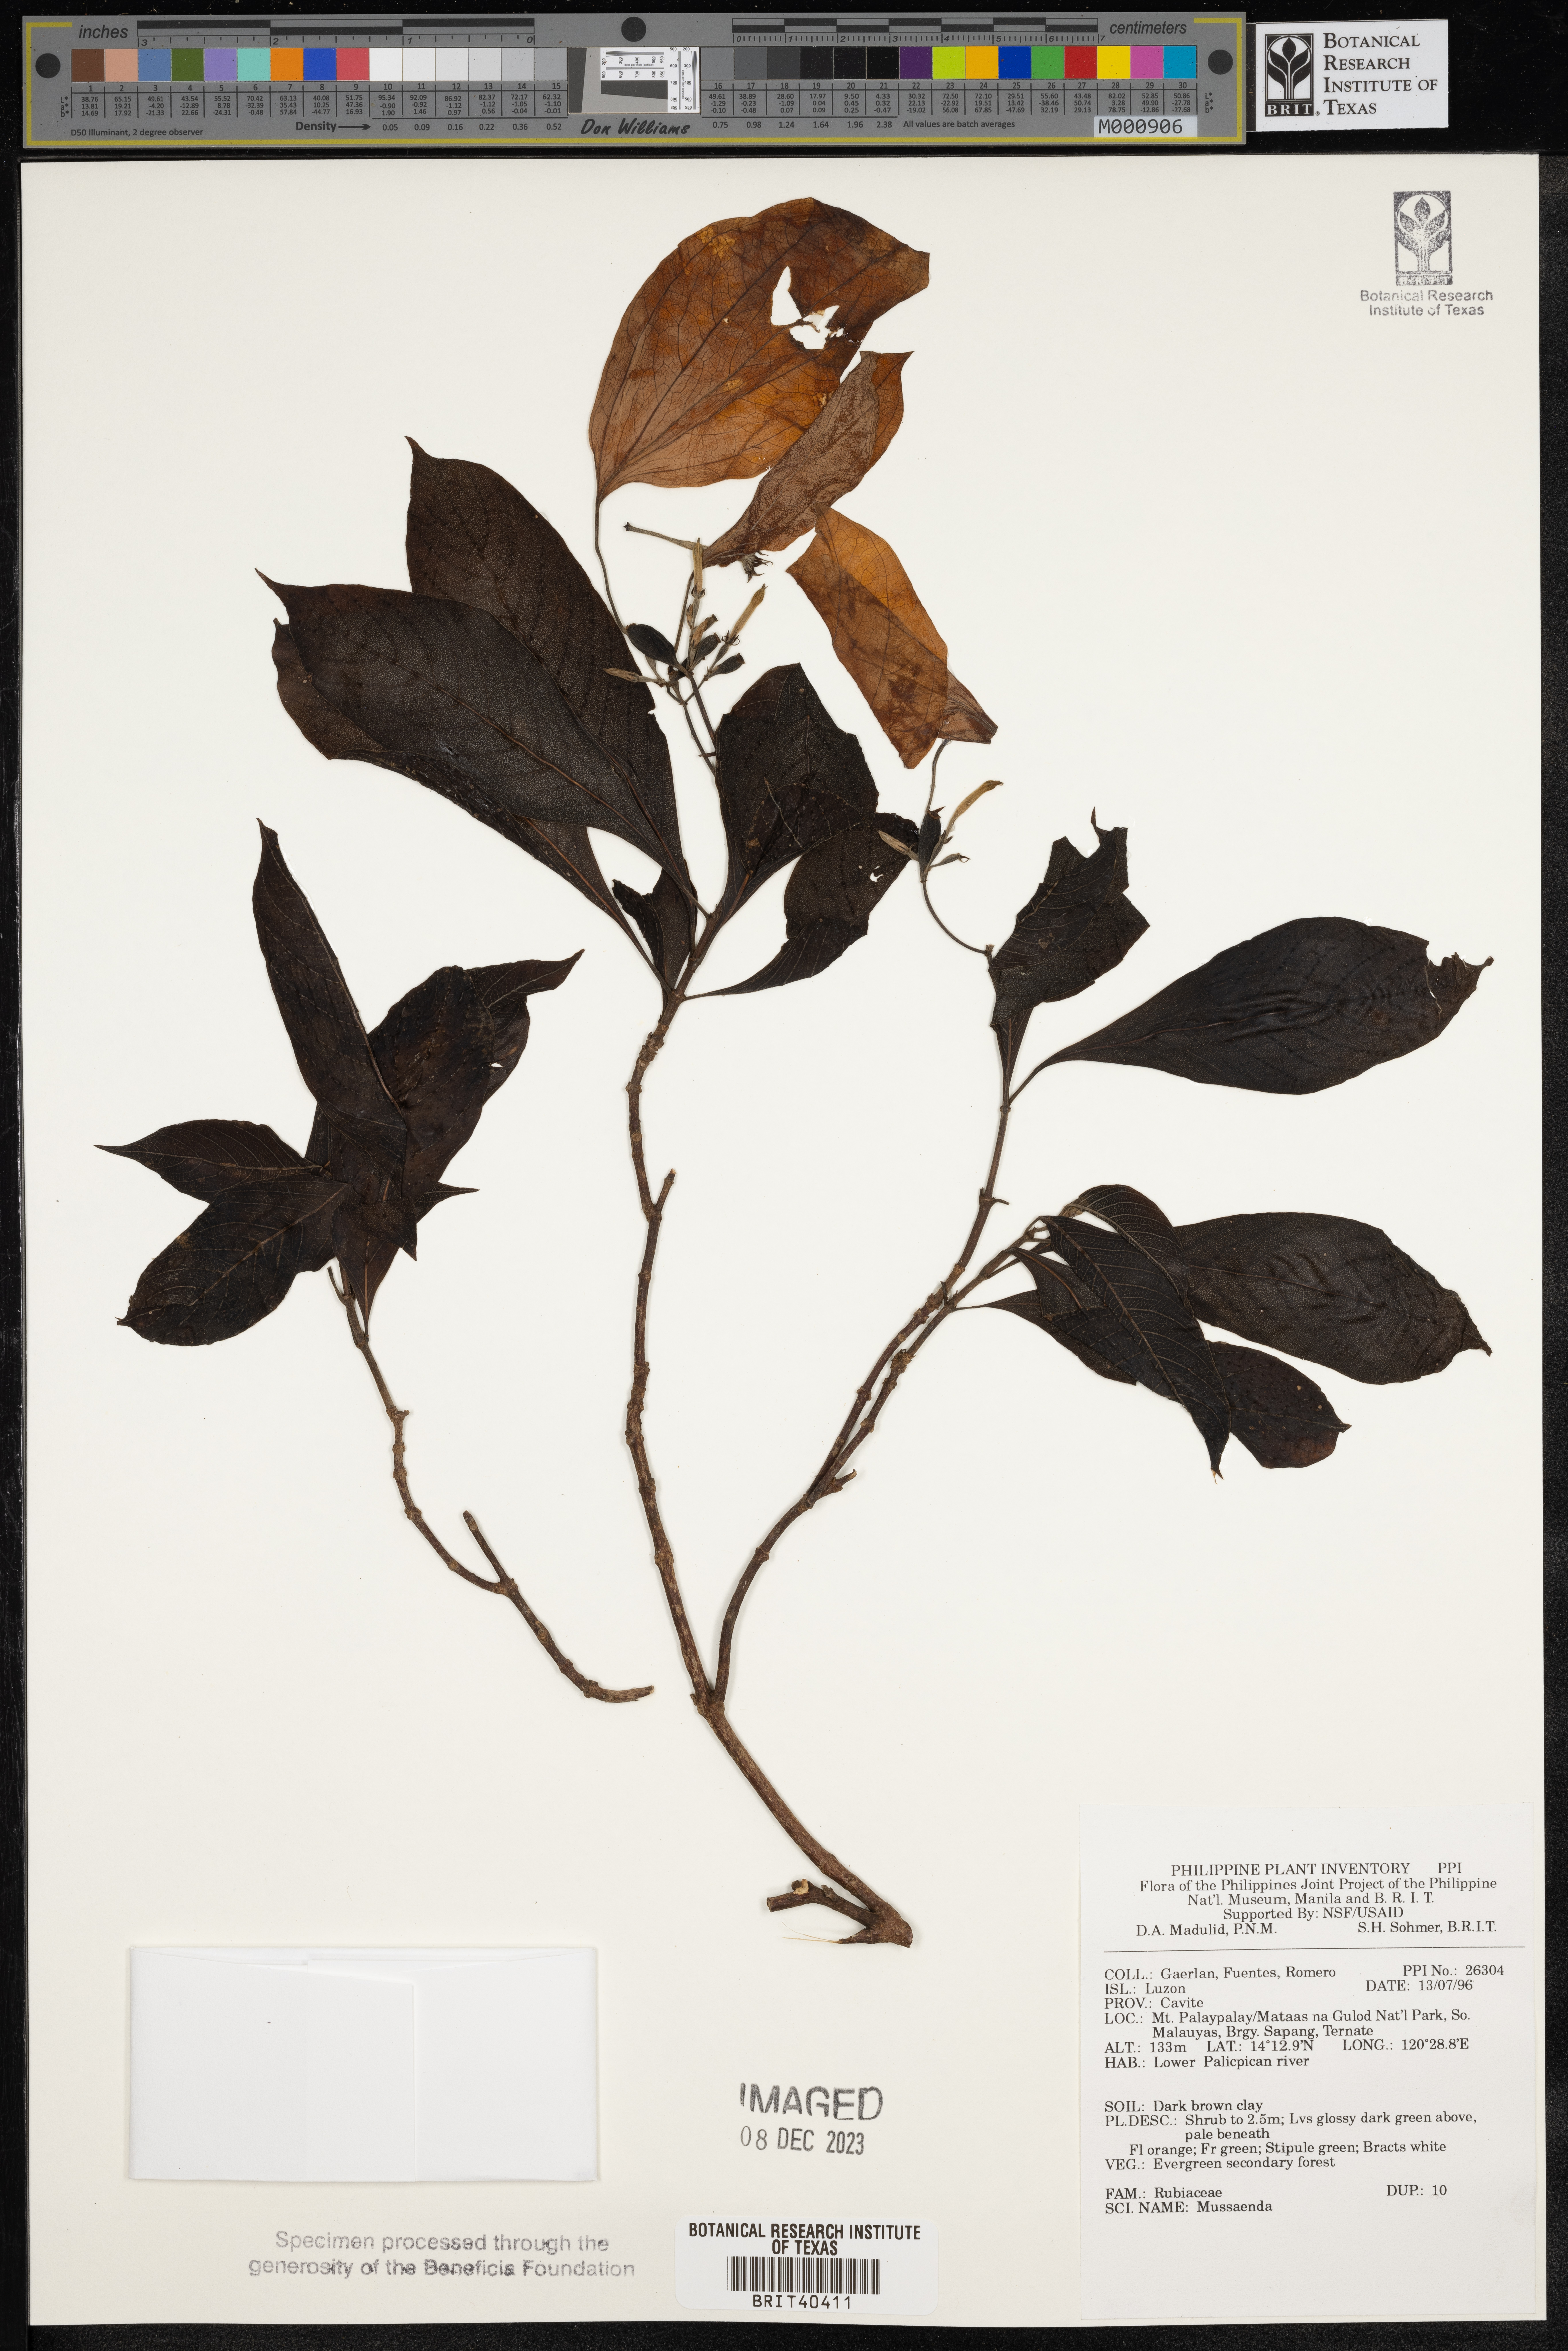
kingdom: Plantae
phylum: Tracheophyta
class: Magnoliopsida
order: Gentianales
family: Rubiaceae
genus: Mussaenda
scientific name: Mussaenda
